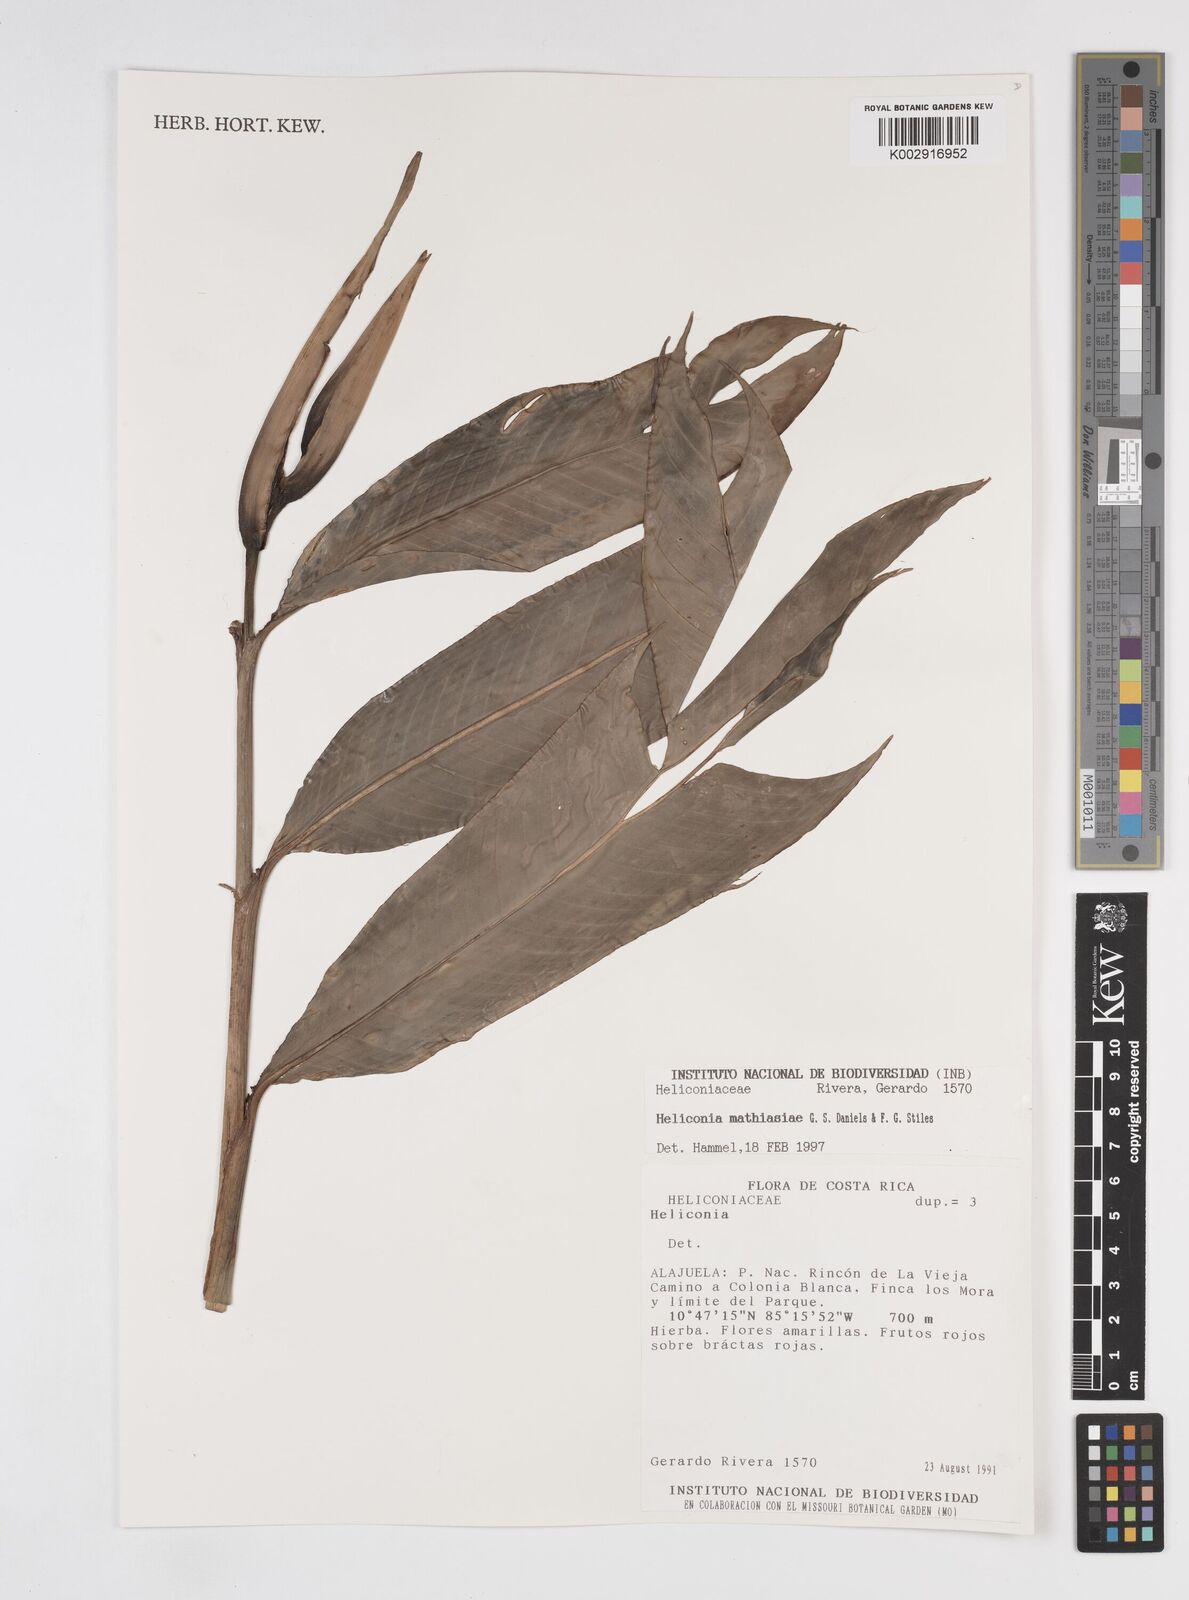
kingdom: Plantae
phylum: Tracheophyta
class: Liliopsida
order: Zingiberales
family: Heliconiaceae
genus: Heliconia
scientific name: Heliconia mathiasiae
